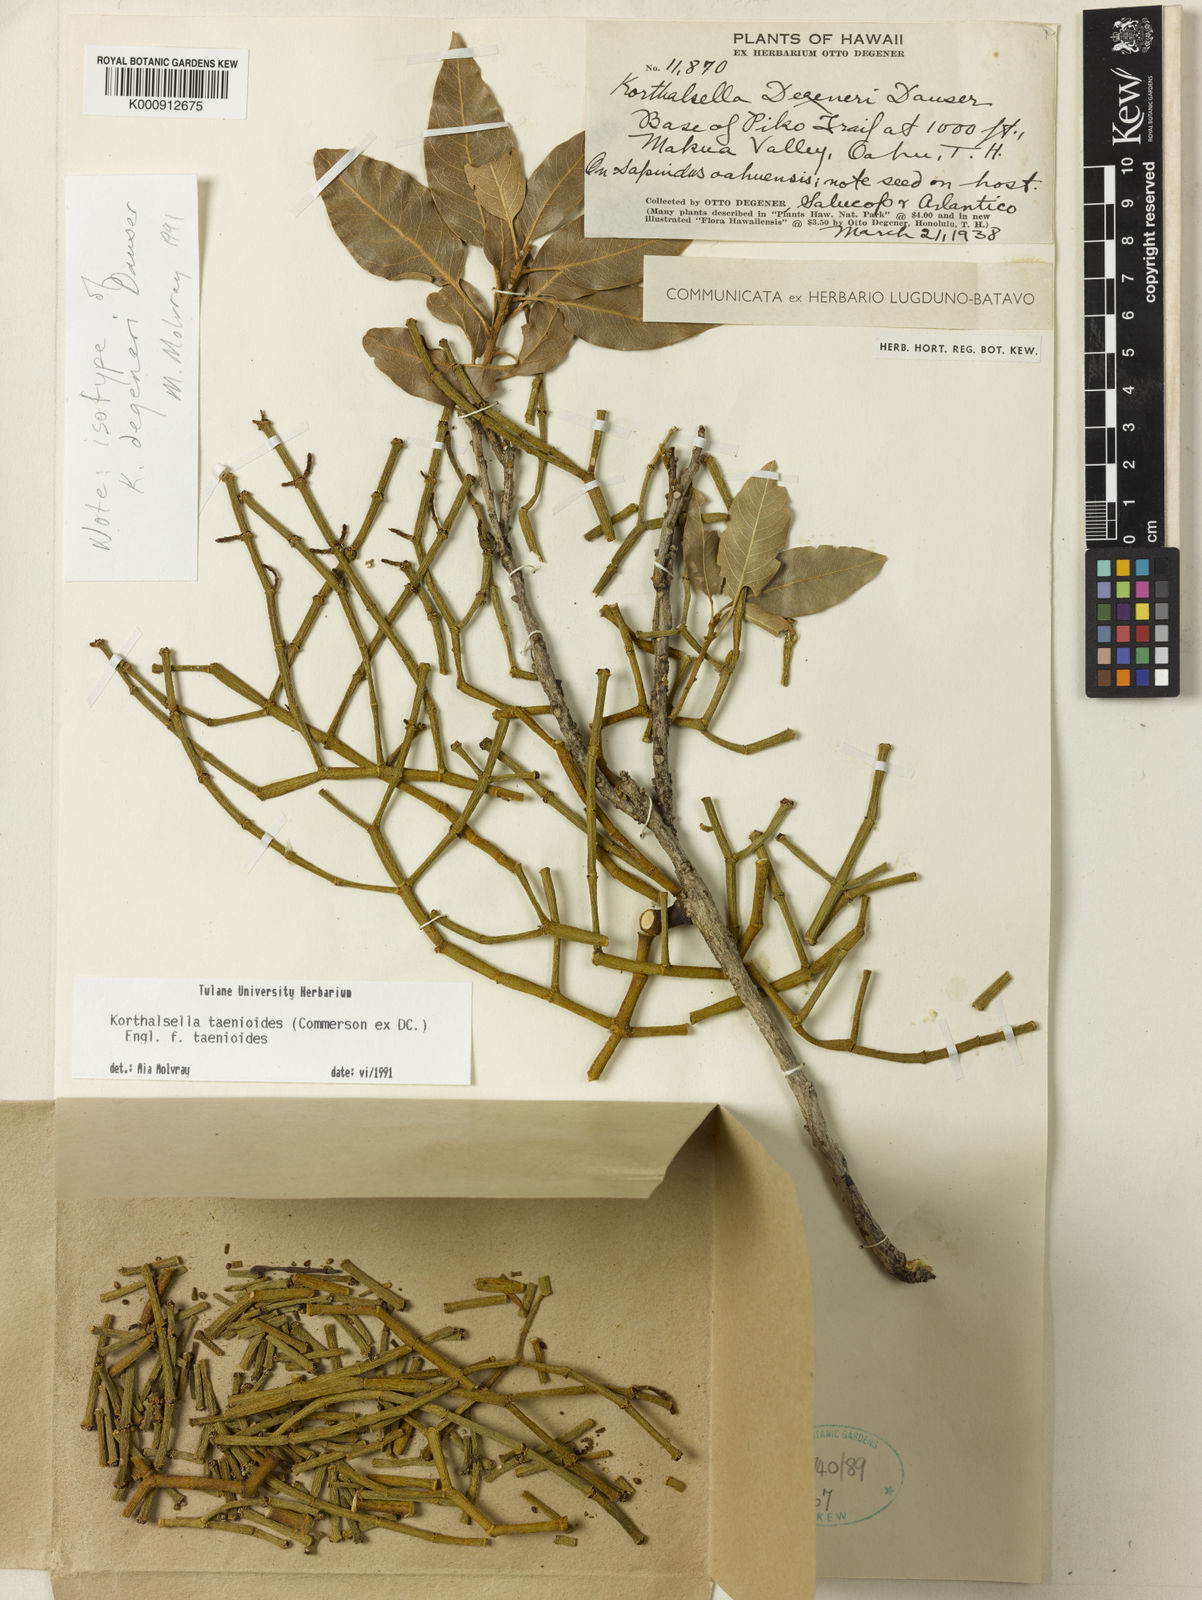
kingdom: Plantae
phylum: Tracheophyta
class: Magnoliopsida
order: Santalales
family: Viscaceae
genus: Korthalsella
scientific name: Korthalsella
